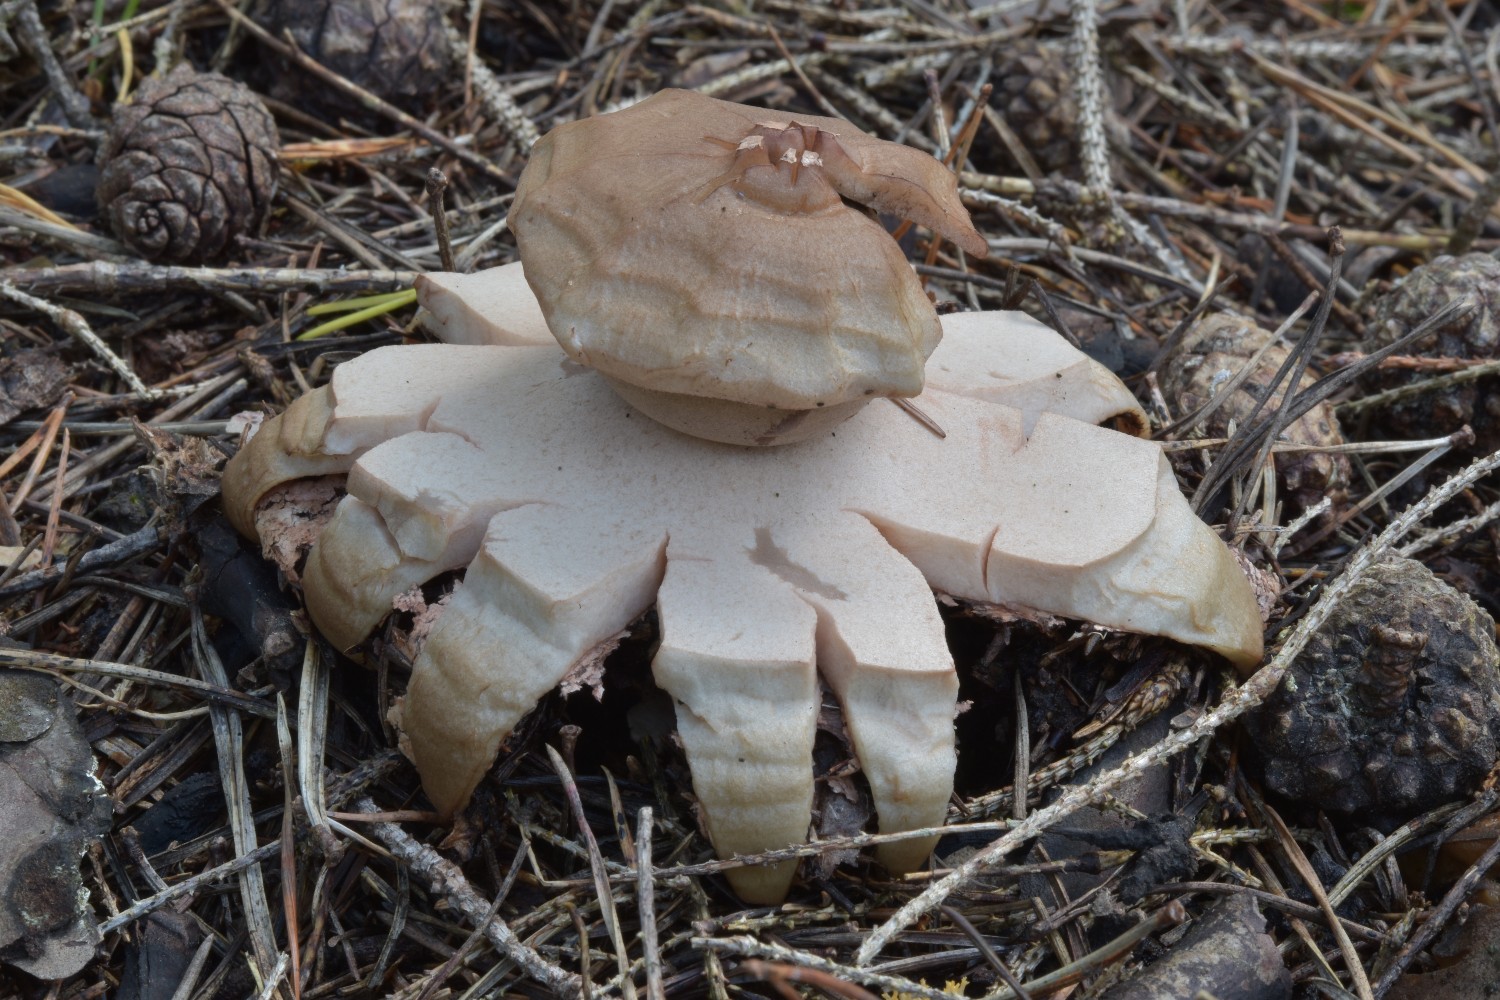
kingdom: Fungi
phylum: Basidiomycota
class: Agaricomycetes
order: Geastrales
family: Geastraceae
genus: Geastrum
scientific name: Geastrum rufescens
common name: kødfarvet stjernebold
